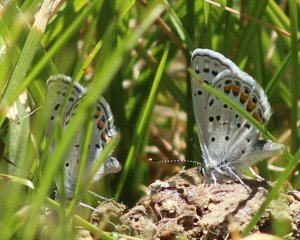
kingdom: Animalia
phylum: Arthropoda
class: Insecta
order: Lepidoptera
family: Lycaenidae
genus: Plebejus
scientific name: Plebejus acmon
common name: Acmon Blue
